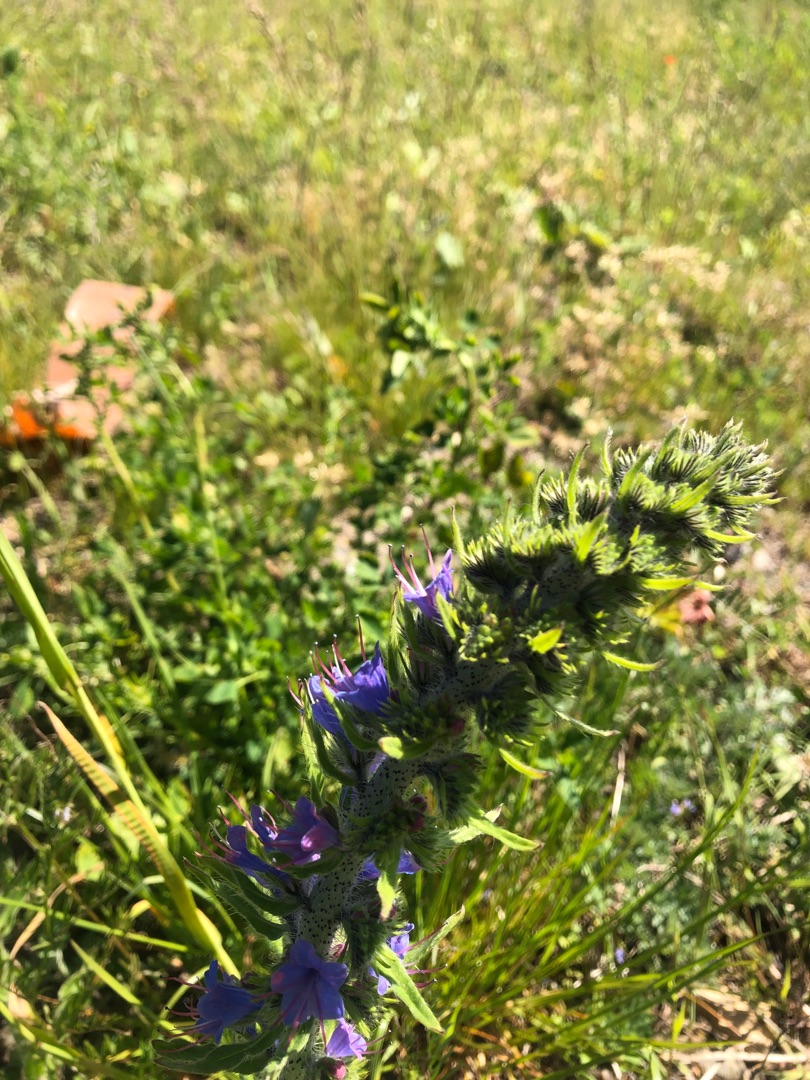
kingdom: Plantae
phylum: Tracheophyta
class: Magnoliopsida
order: Boraginales
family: Boraginaceae
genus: Echium
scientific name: Echium vulgare
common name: Slangehoved
